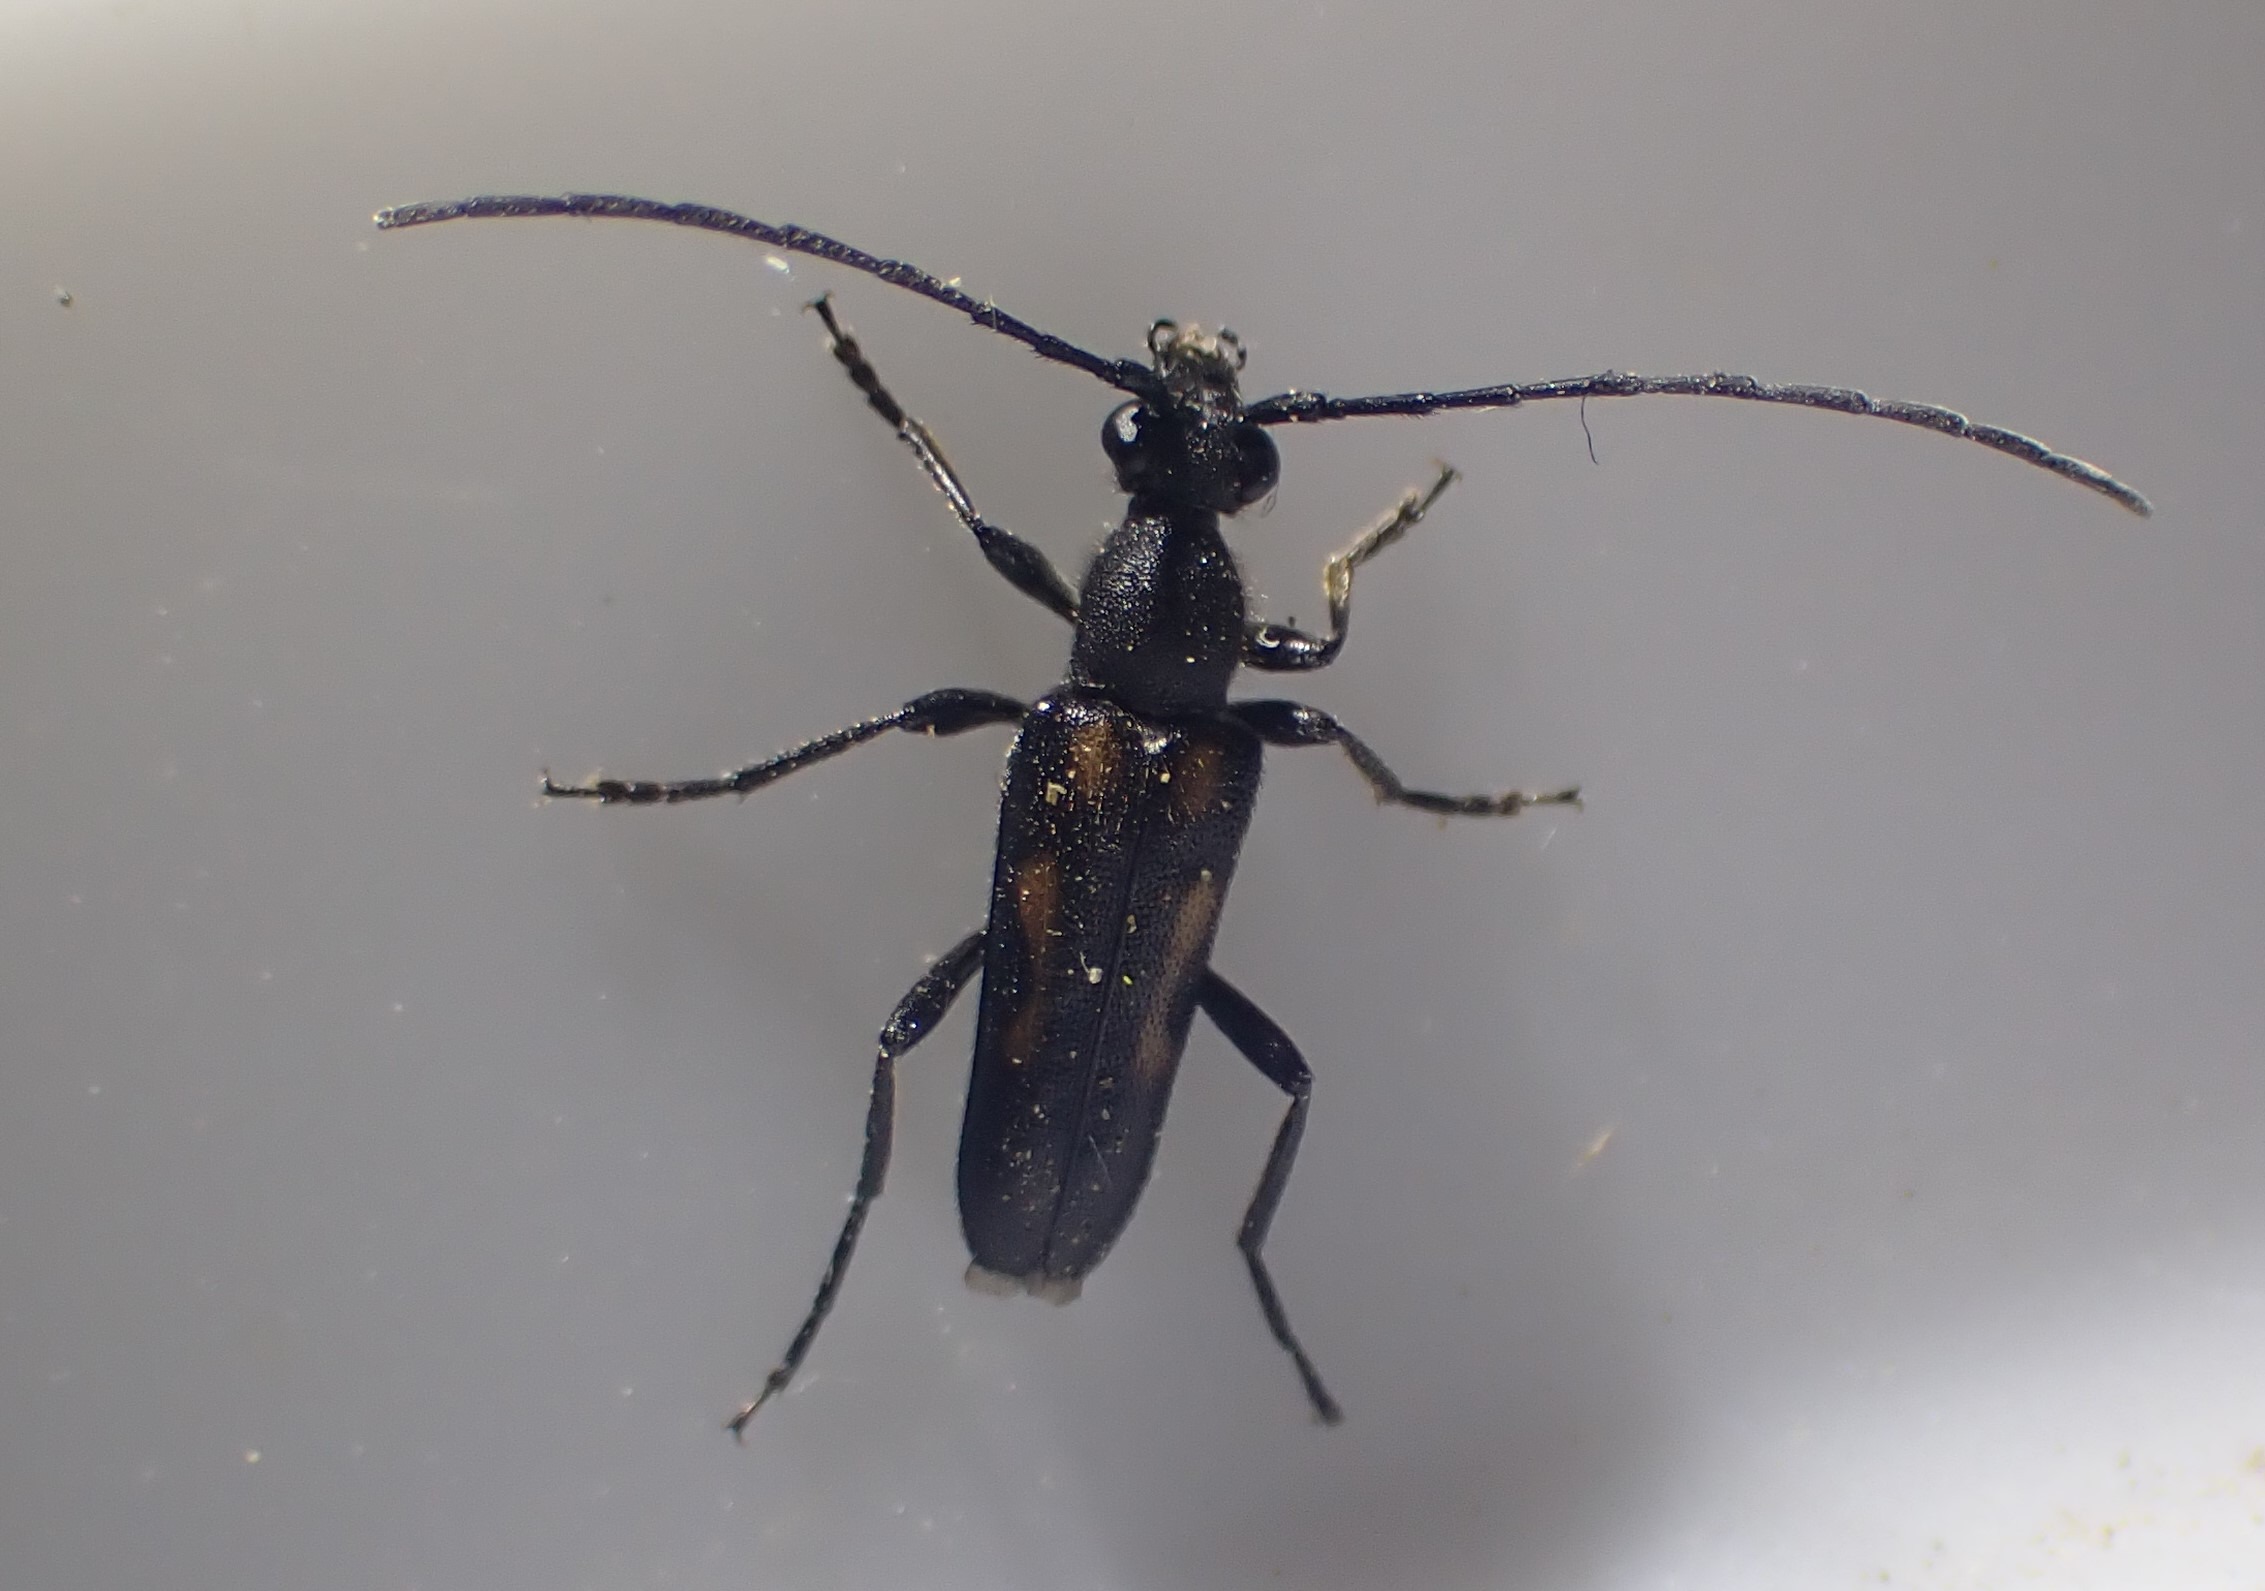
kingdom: Animalia
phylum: Arthropoda
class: Insecta
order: Coleoptera
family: Cerambycidae
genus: Anoplodera
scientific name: Anoplodera sexguttata
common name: Seksplettet blomsterbuk
